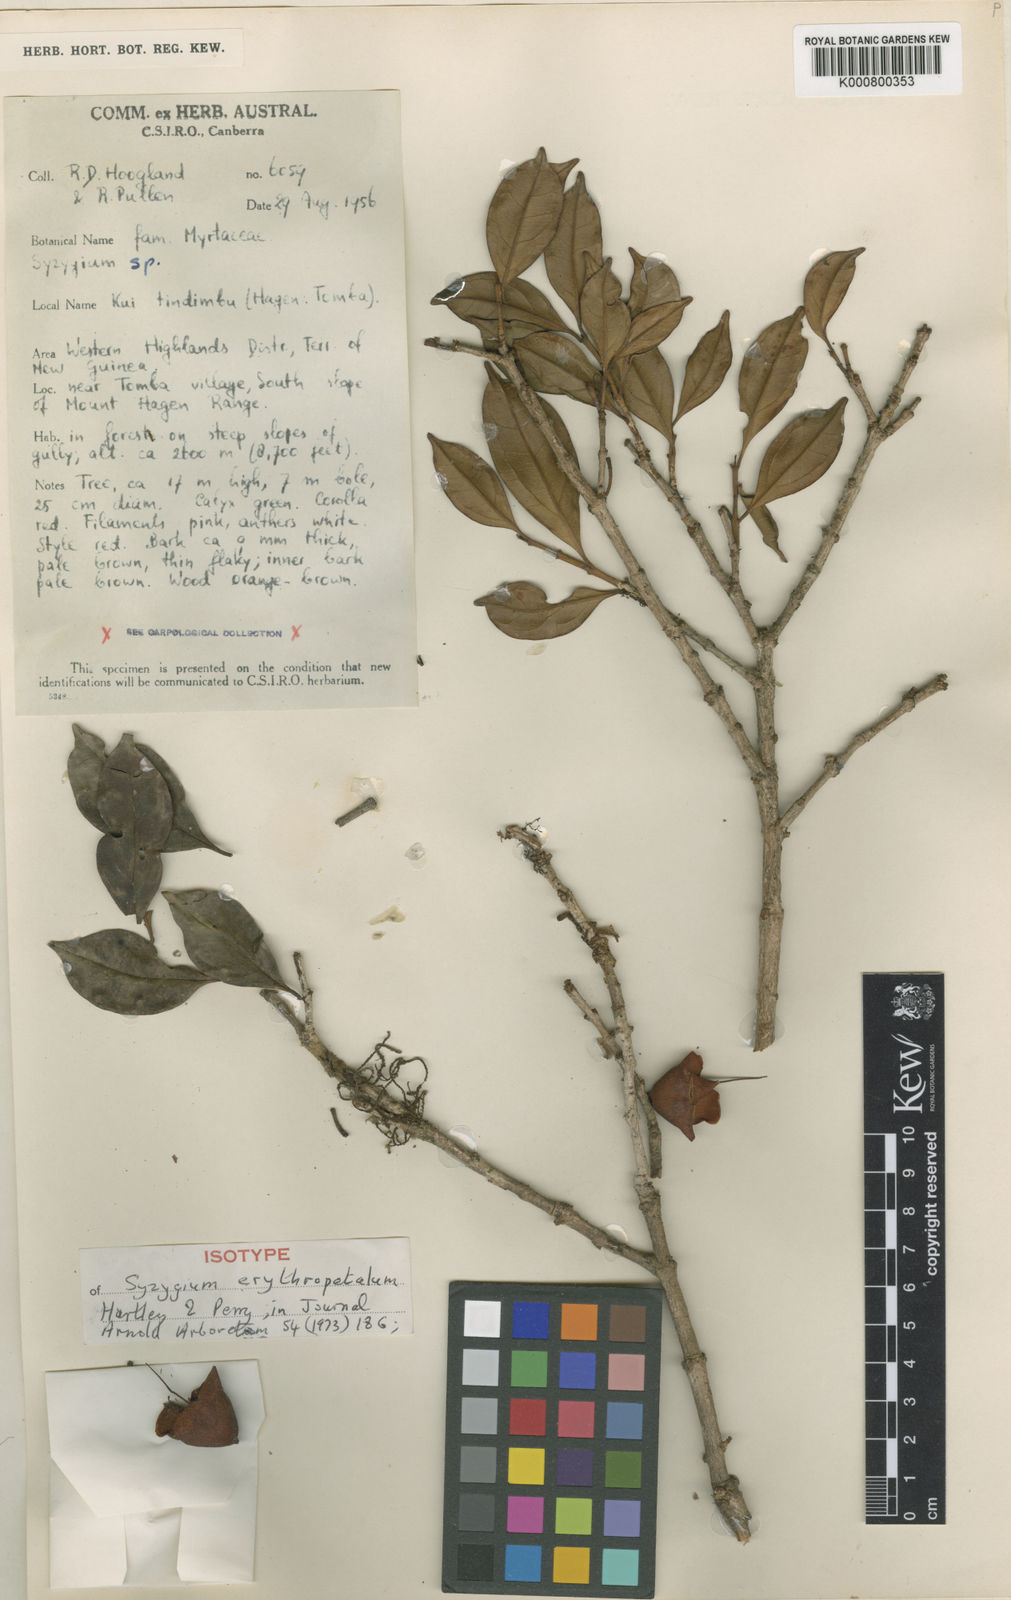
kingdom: Plantae
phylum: Tracheophyta
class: Magnoliopsida
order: Myrtales
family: Myrtaceae
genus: Syzygium
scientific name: Syzygium erythropetalum
